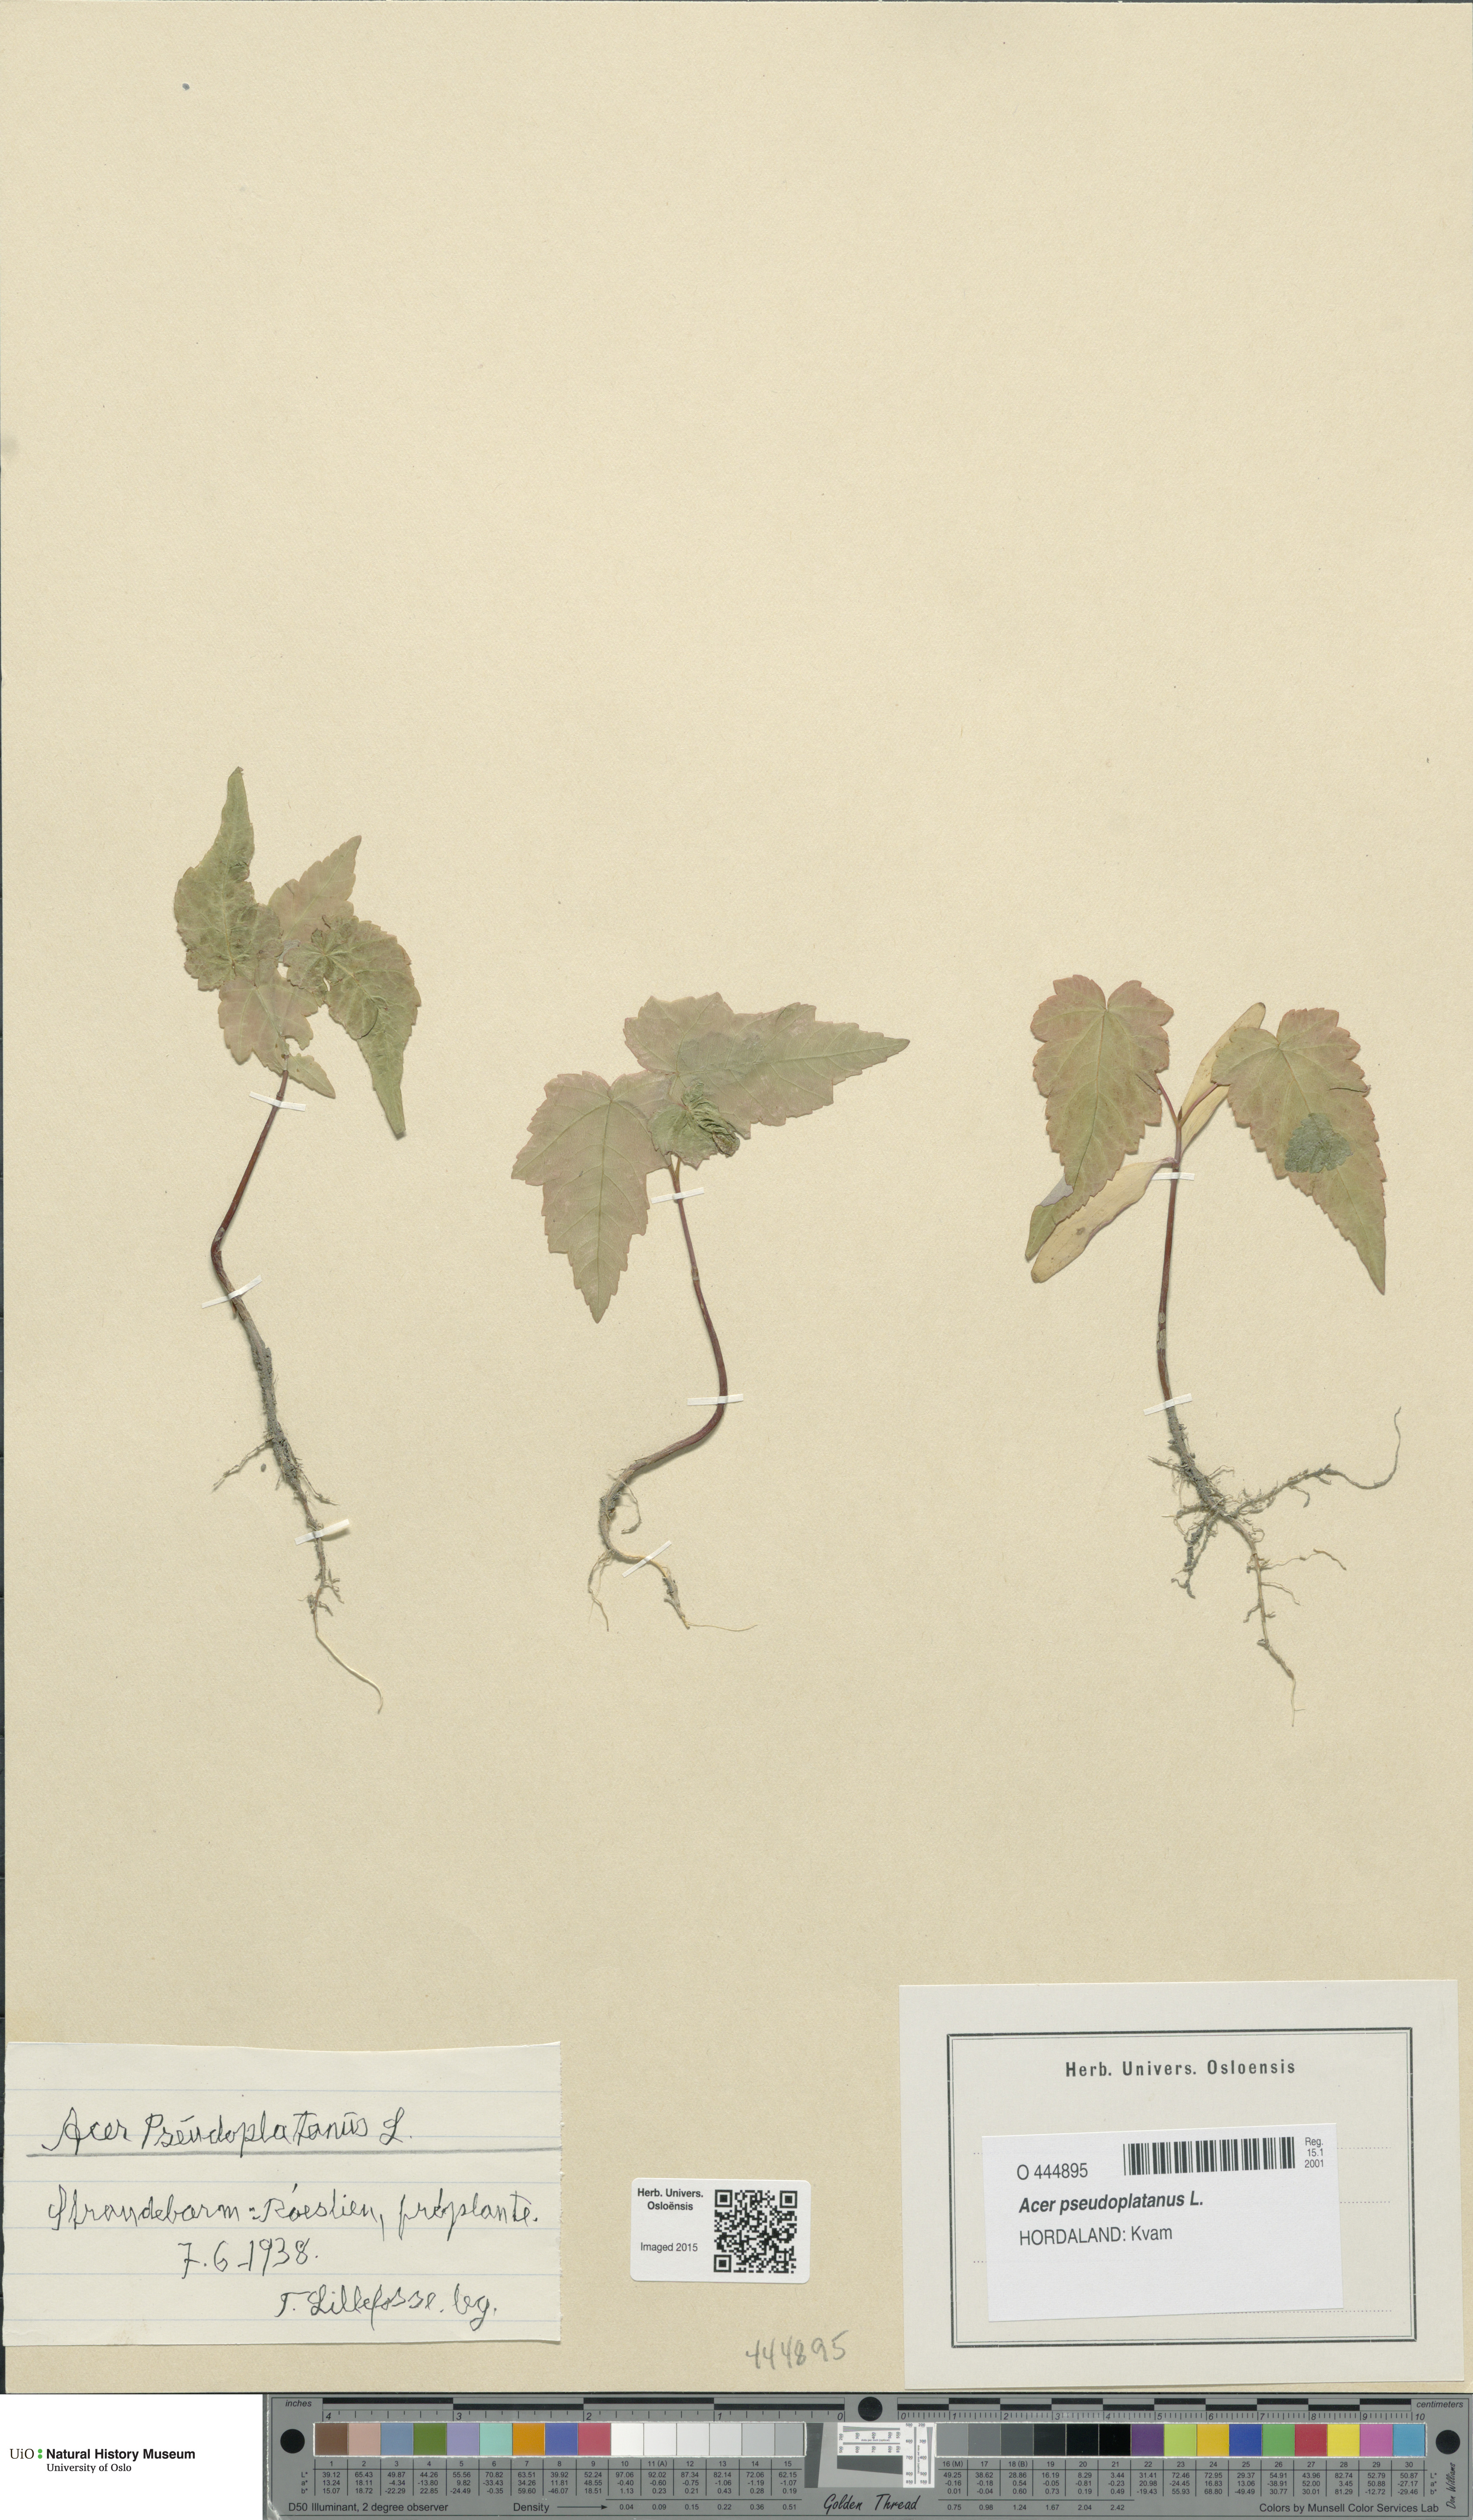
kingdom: Plantae
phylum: Tracheophyta
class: Magnoliopsida
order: Sapindales
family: Sapindaceae
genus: Acer
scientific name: Acer pseudoplatanus
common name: Sycamore
